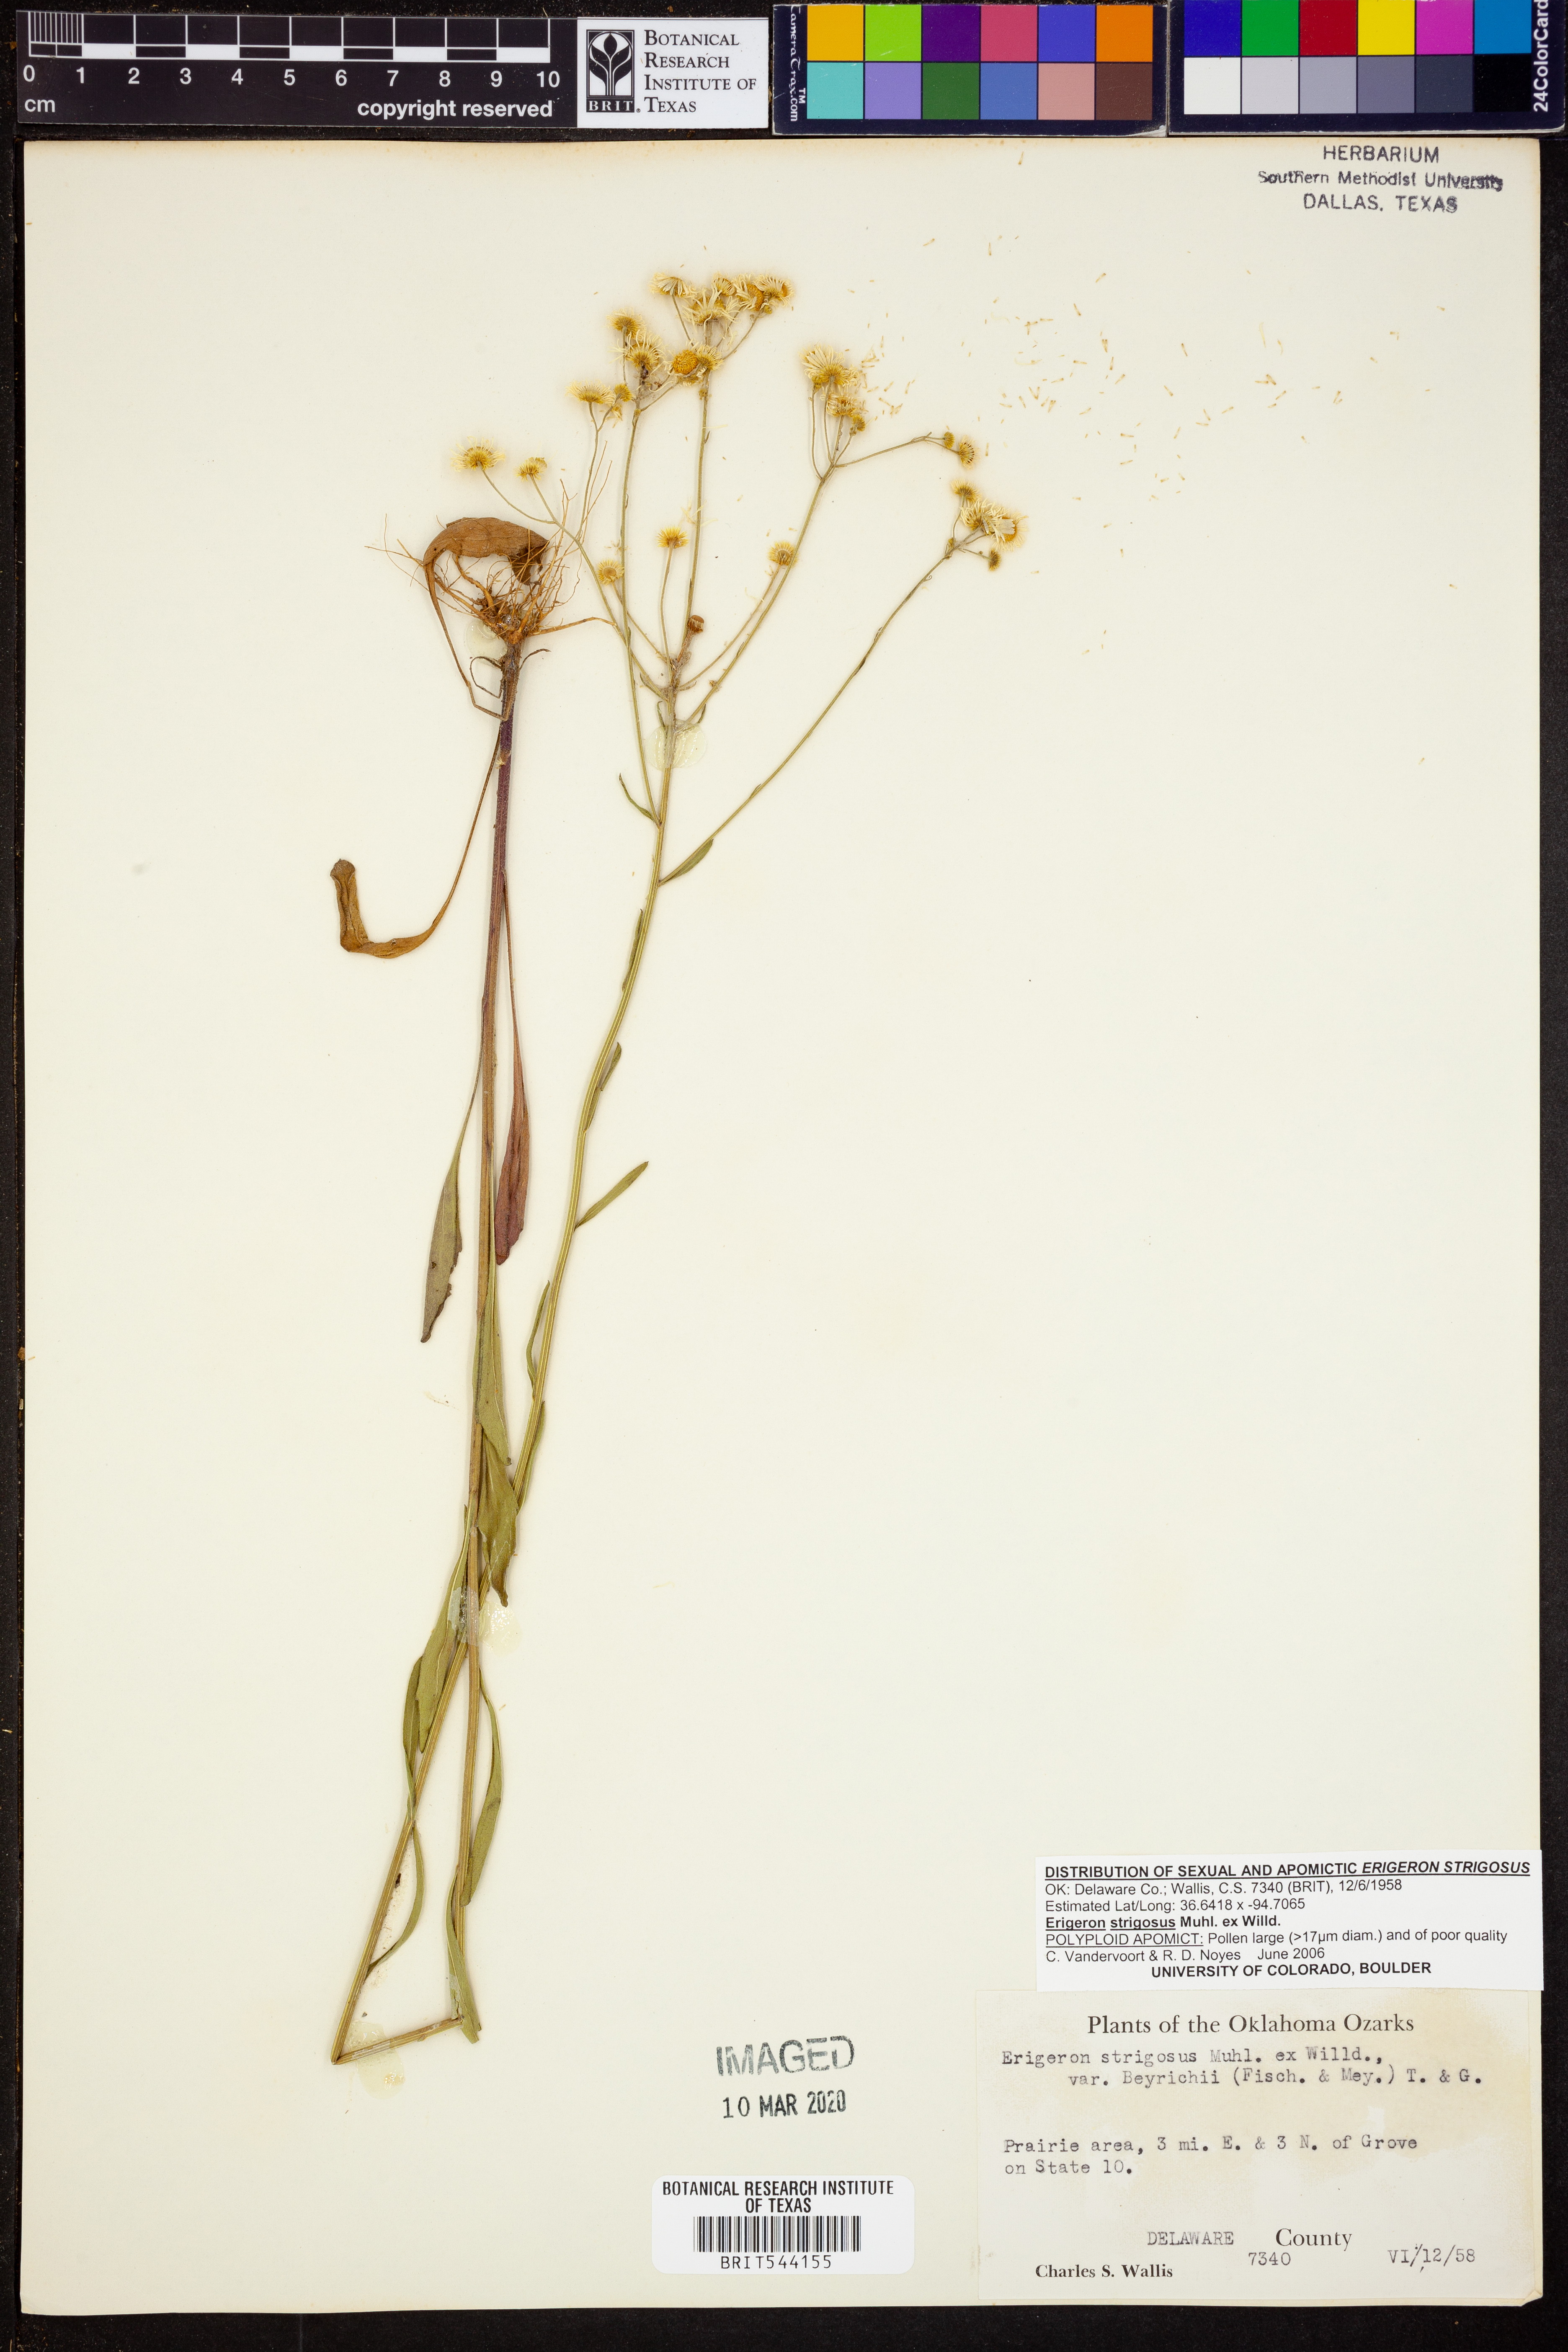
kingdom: Plantae
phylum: Tracheophyta
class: Magnoliopsida
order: Asterales
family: Asteraceae
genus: Erigeron
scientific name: Erigeron strigosus
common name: Common eastern fleabane
